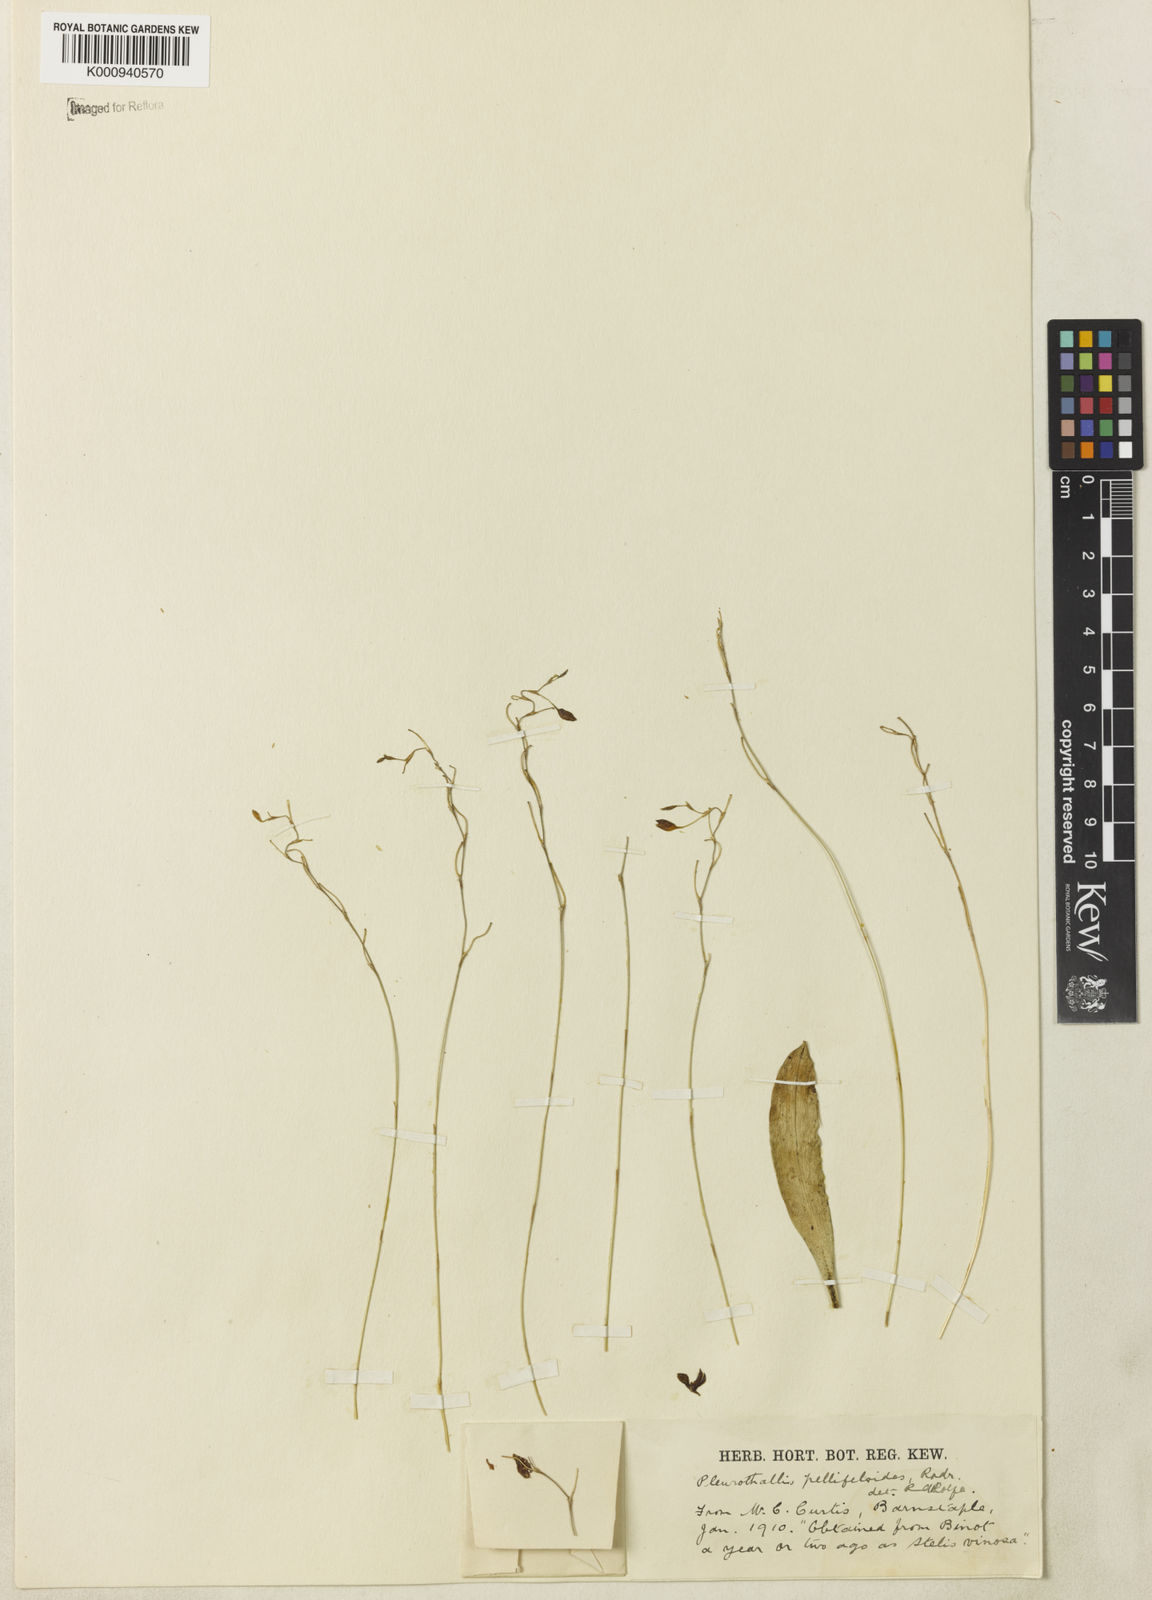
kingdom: Plantae
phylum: Tracheophyta
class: Liliopsida
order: Asparagales
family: Orchidaceae
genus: Pabstiella
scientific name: Pabstiella pellifeloidis
